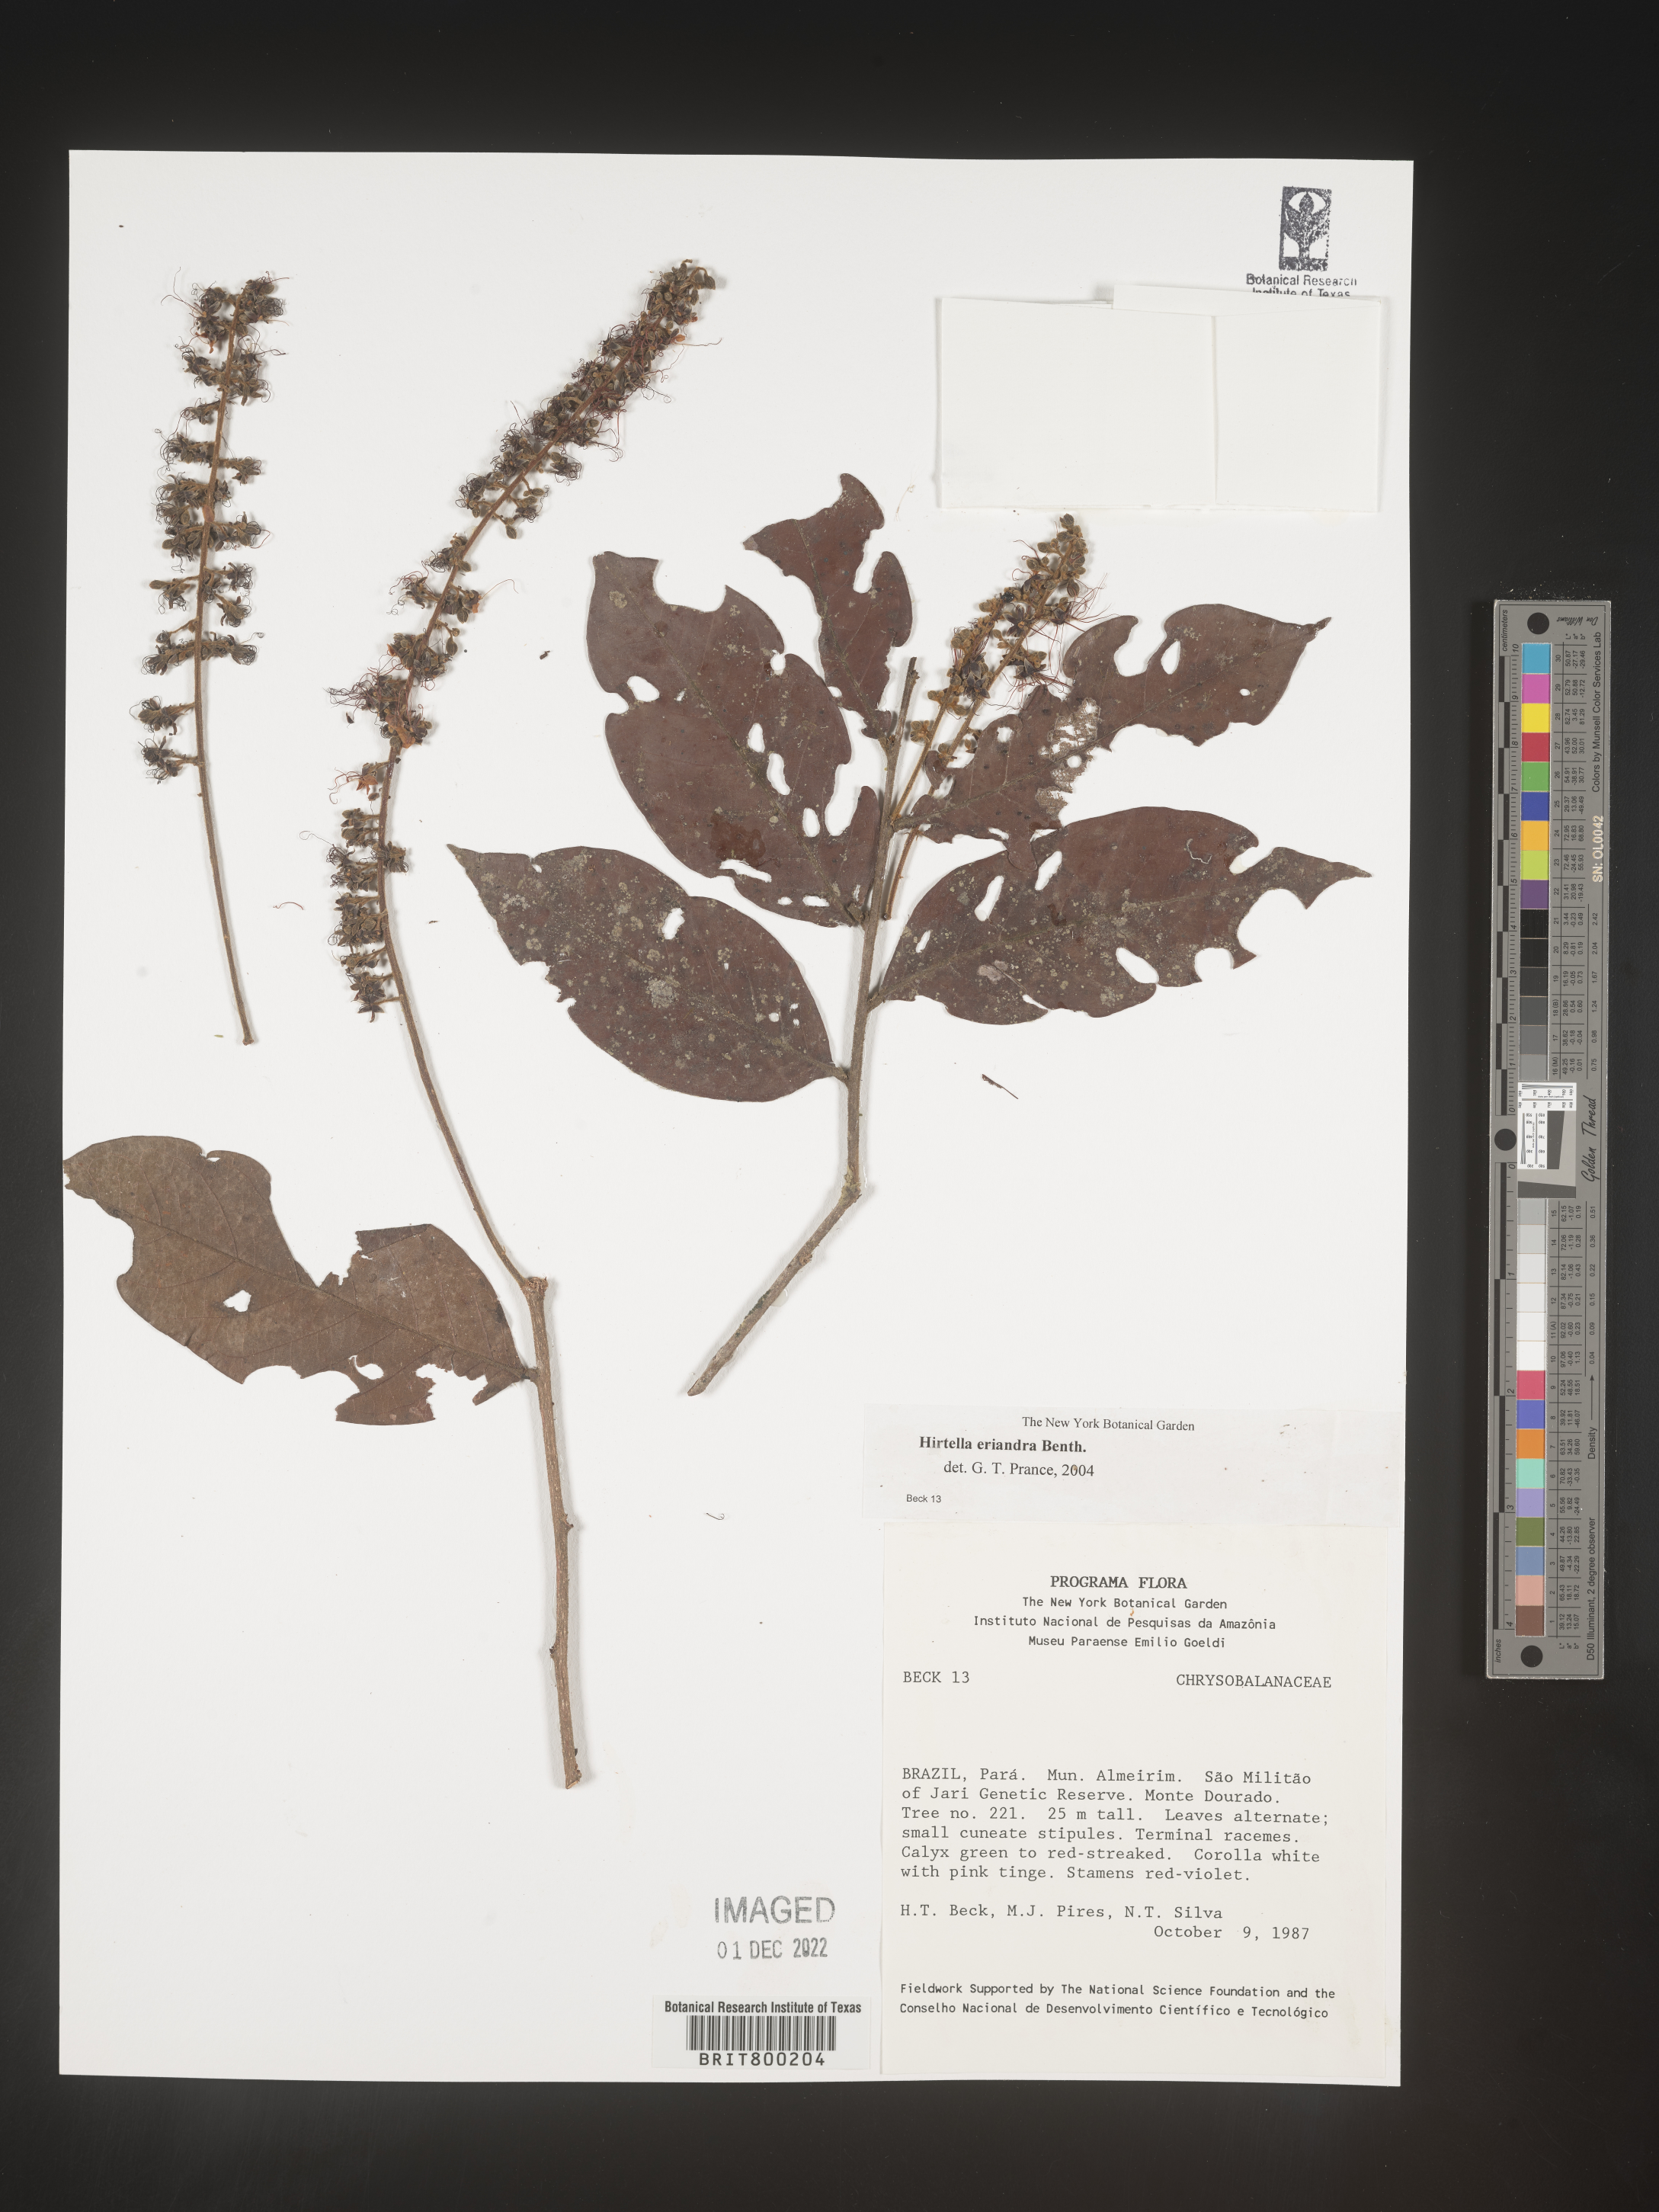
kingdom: Plantae
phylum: Tracheophyta
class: Magnoliopsida
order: Malpighiales
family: Chrysobalanaceae
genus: Hirtella
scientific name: Hirtella
